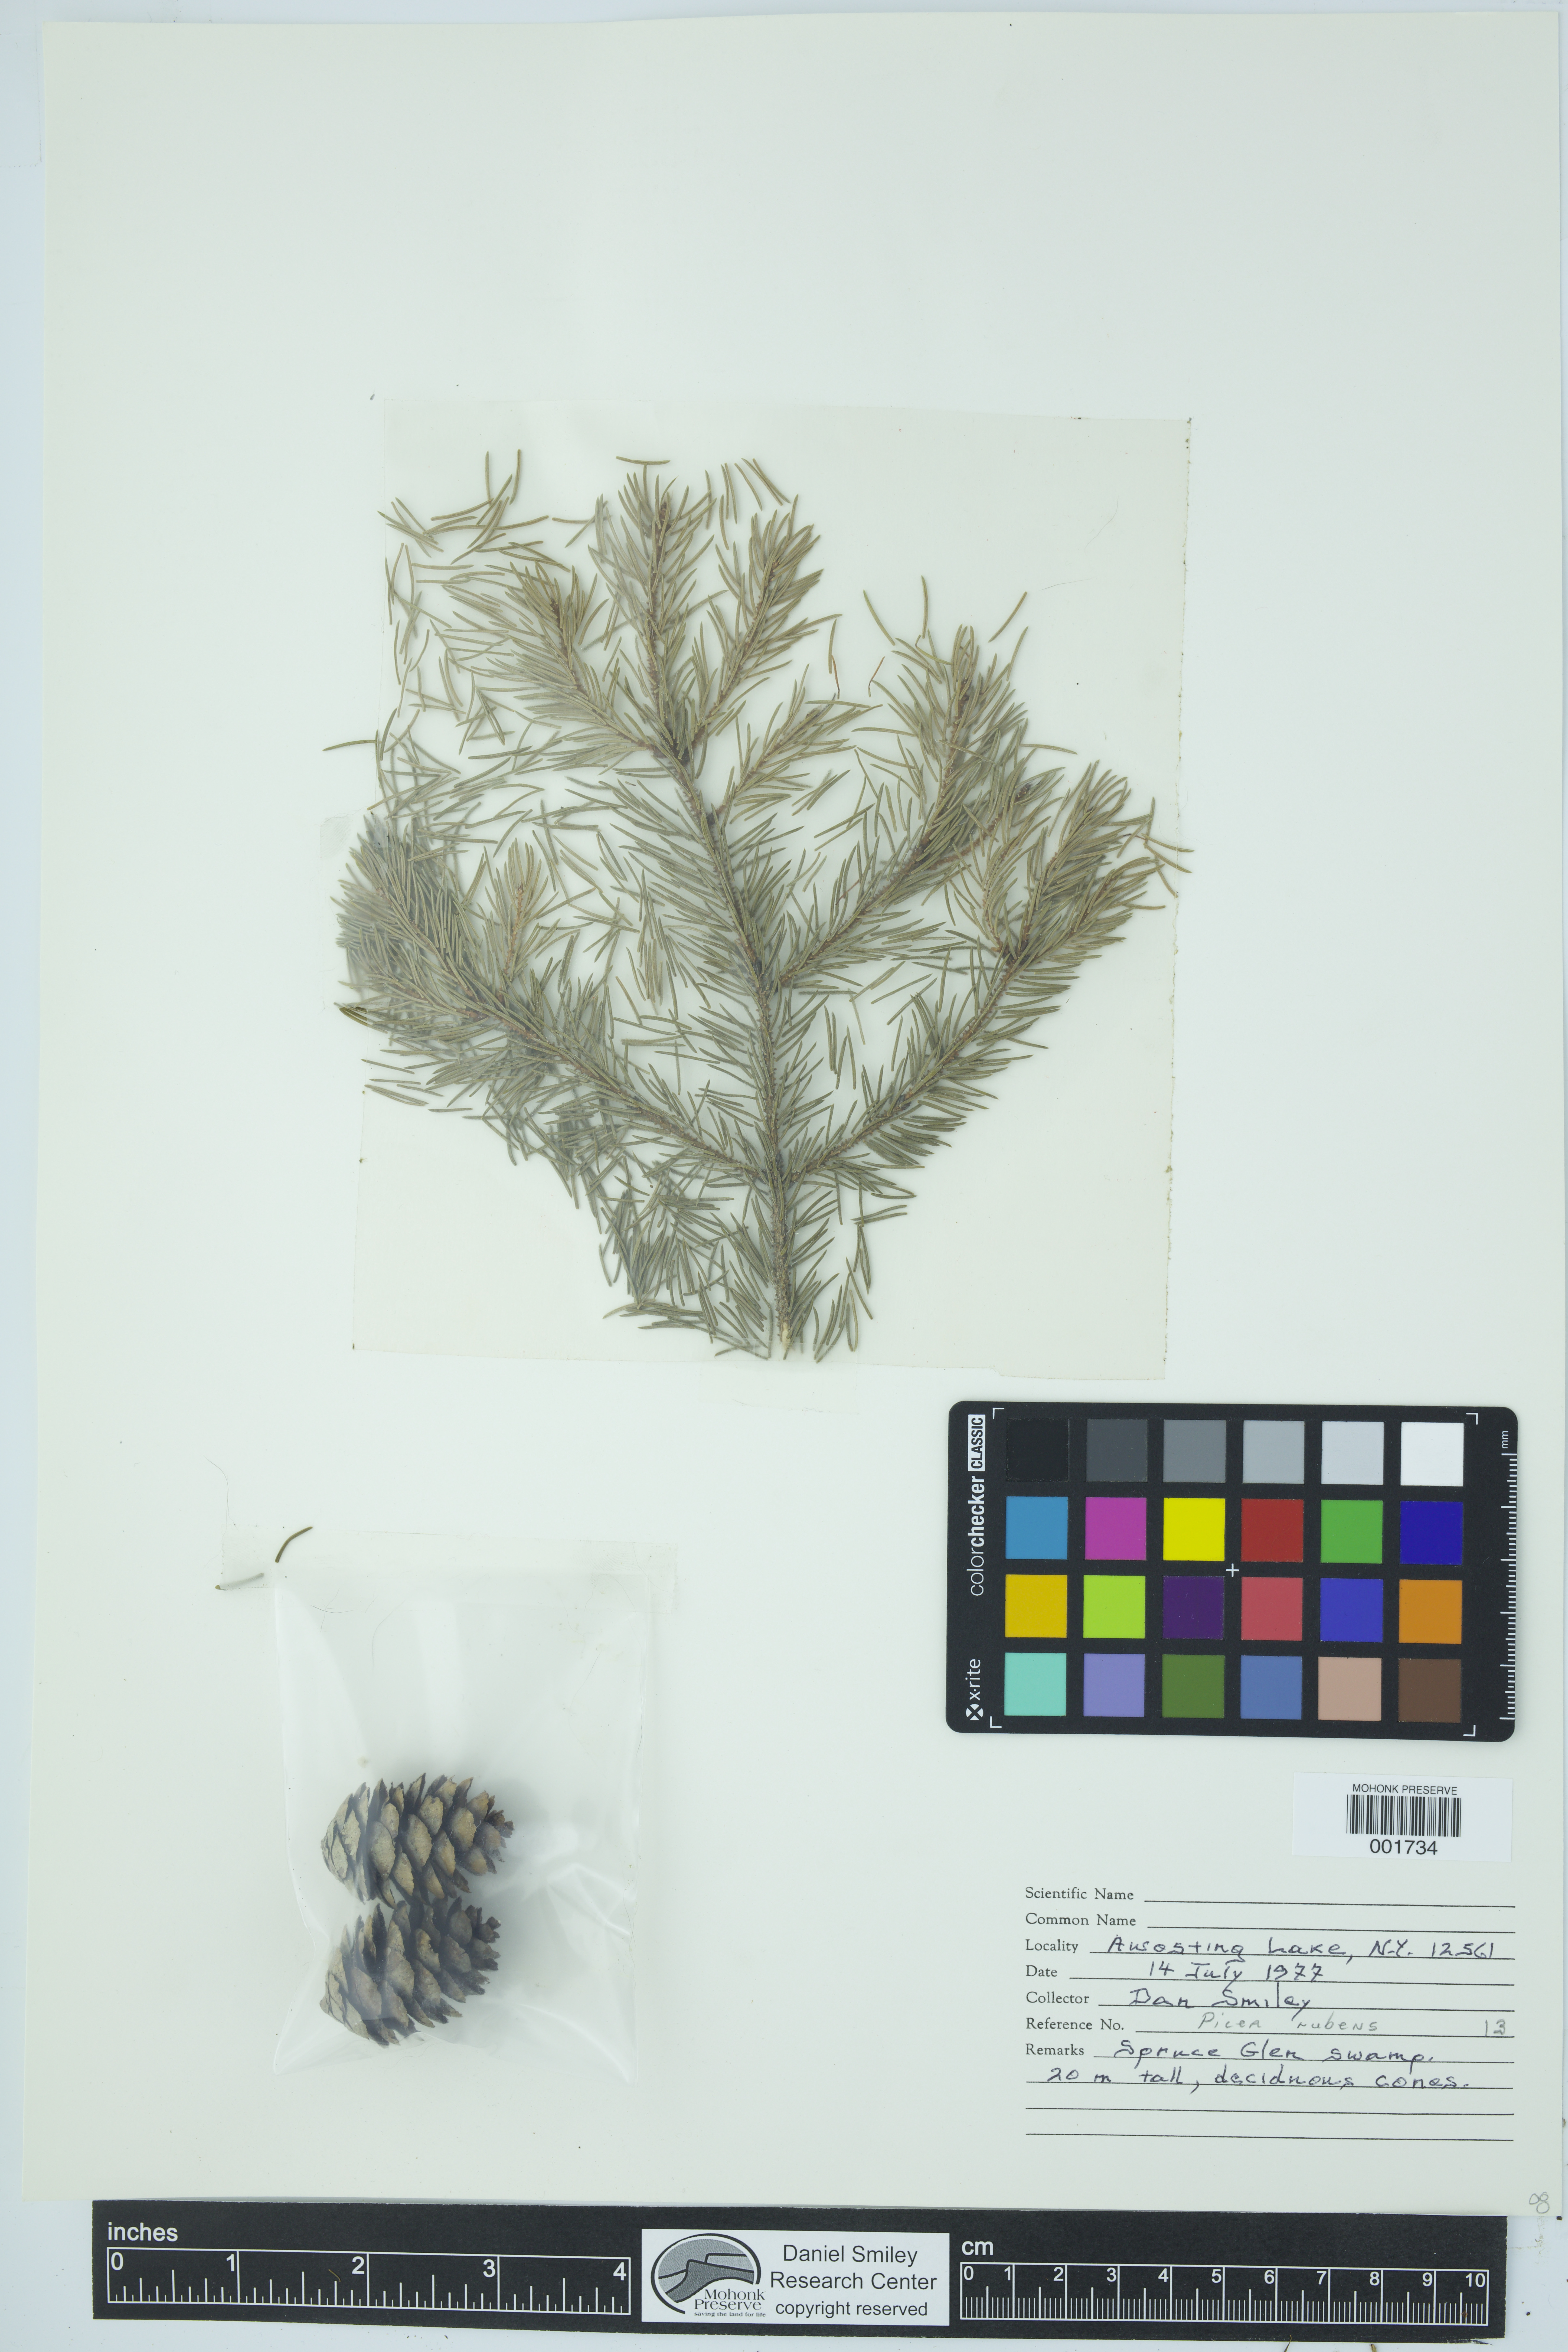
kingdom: Plantae
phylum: Tracheophyta
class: Pinopsida
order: Pinales
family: Pinaceae
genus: Picea
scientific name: Picea rubens
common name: Red spruce
